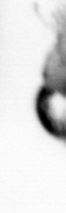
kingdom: Animalia
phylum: Arthropoda
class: Copepoda
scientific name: Copepoda
